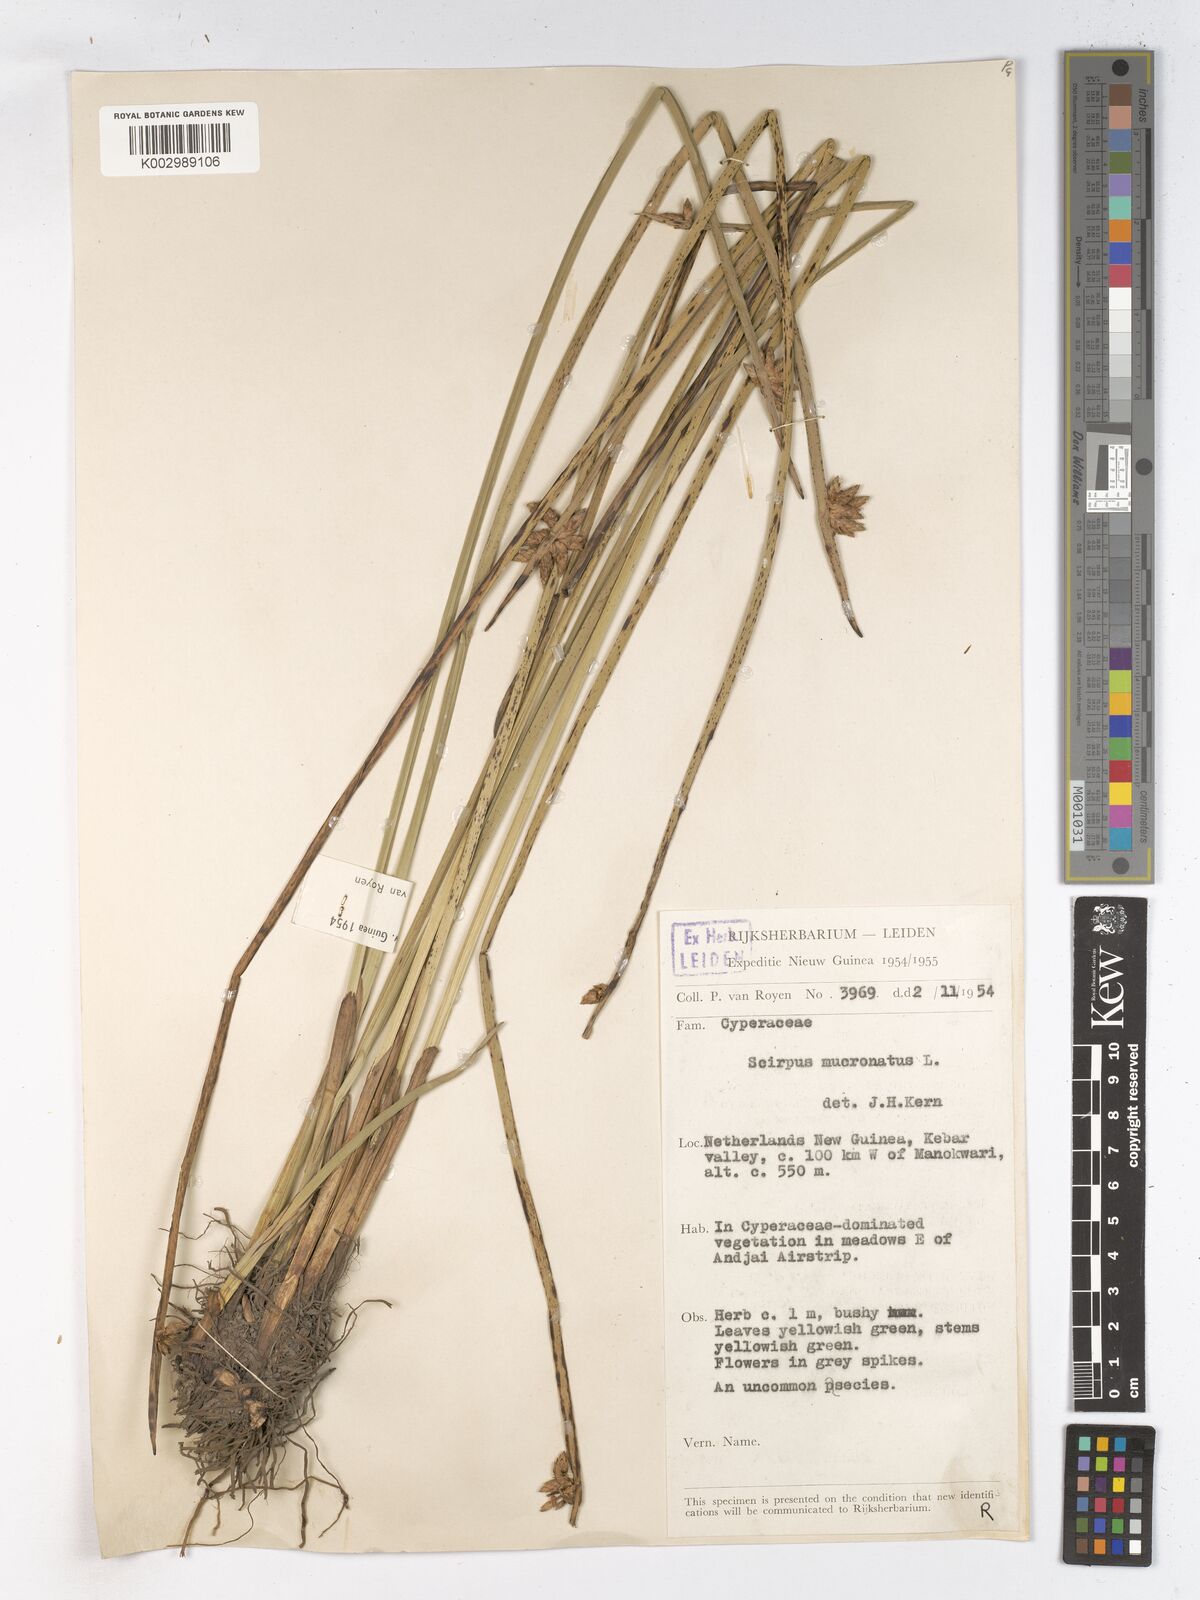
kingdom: Plantae
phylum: Tracheophyta
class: Liliopsida
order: Poales
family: Cyperaceae
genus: Schoenoplectiella
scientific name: Schoenoplectiella mucronata
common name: Bog bulrush
